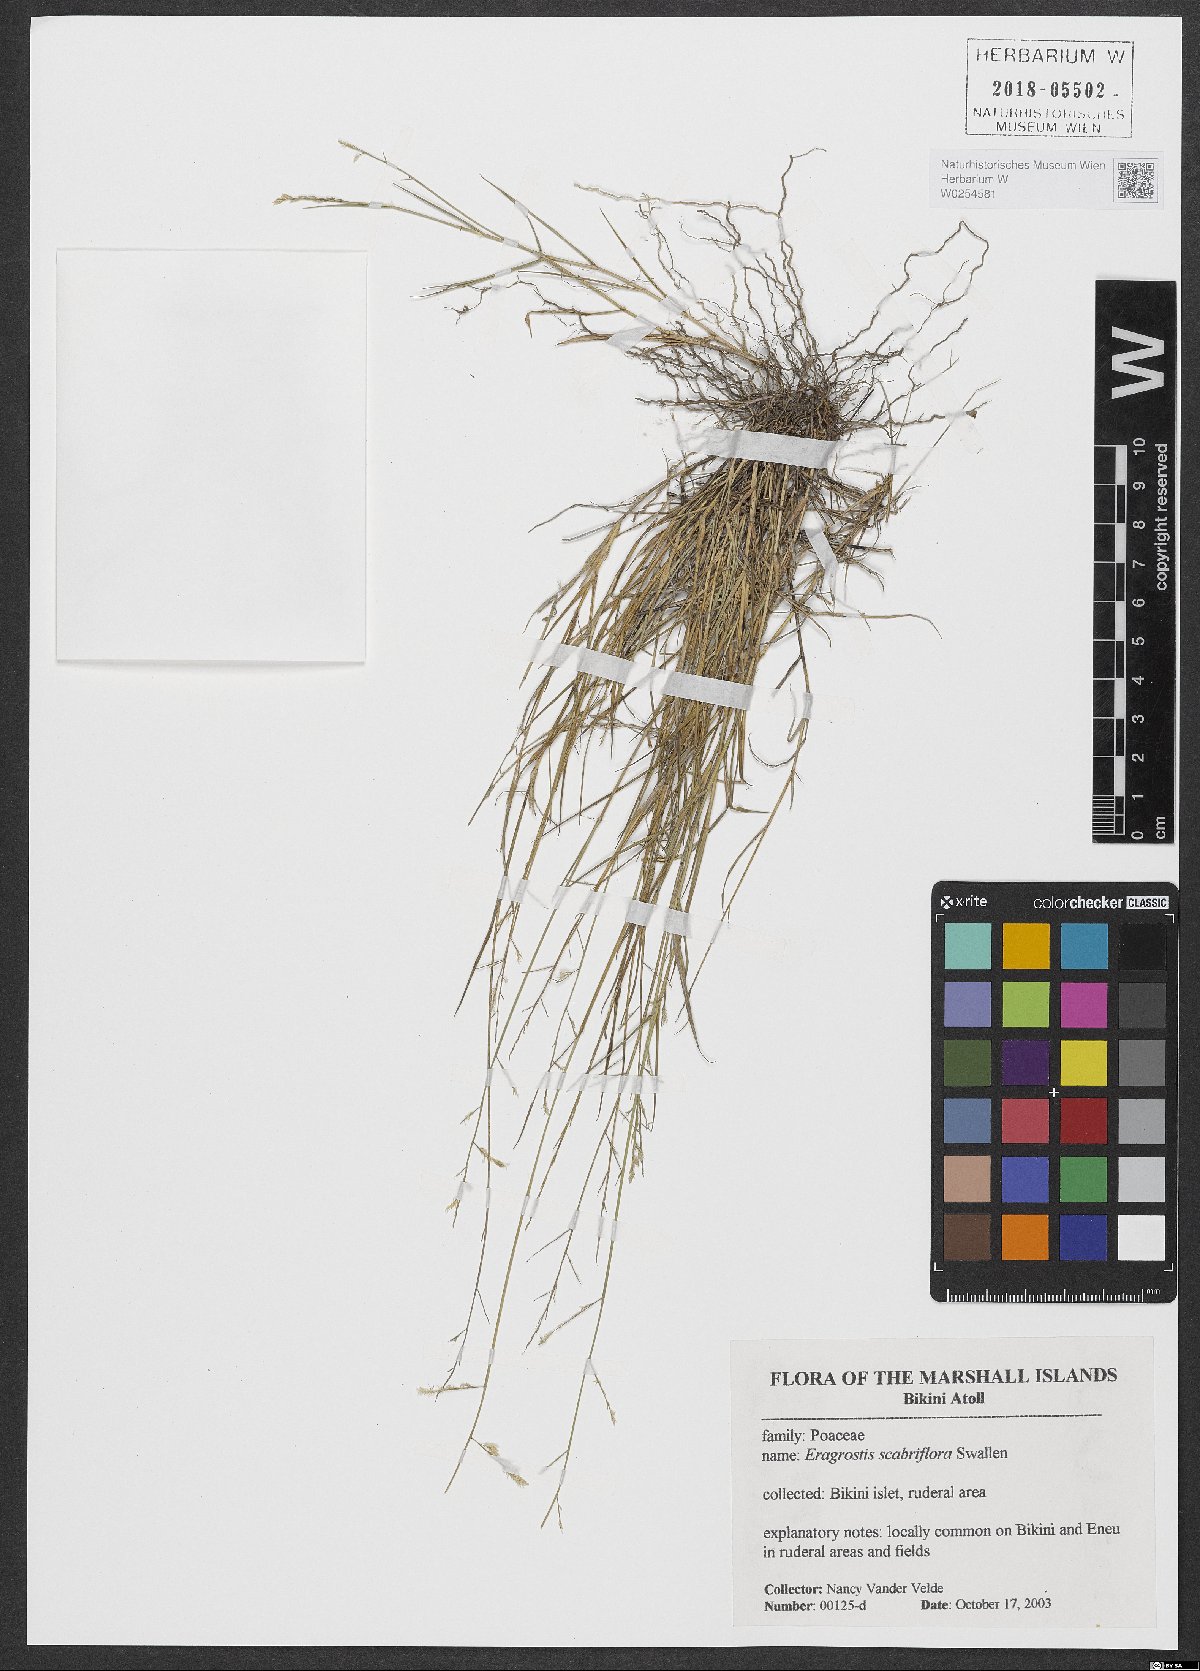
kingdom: Plantae
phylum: Tracheophyta
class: Liliopsida
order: Poales
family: Poaceae
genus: Eragrostis
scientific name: Eragrostis scabriflora
